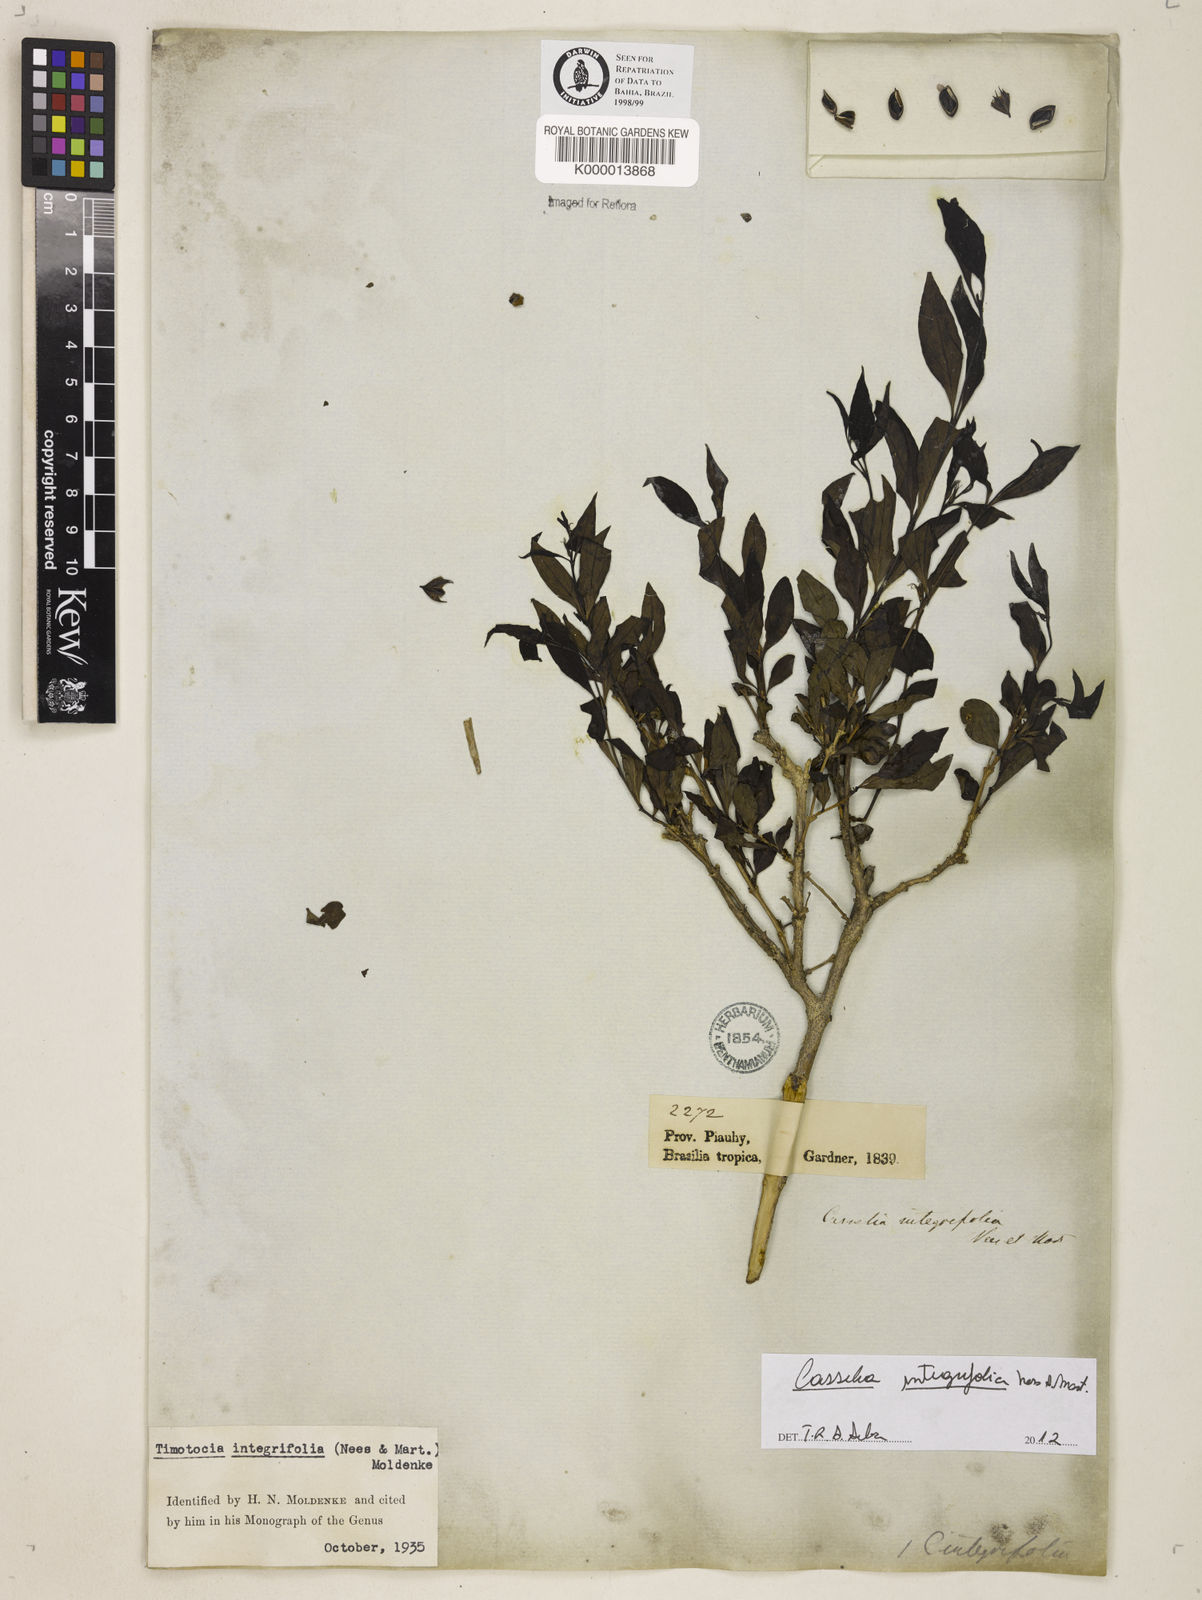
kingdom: Plantae
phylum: Tracheophyta
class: Magnoliopsida
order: Lamiales
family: Verbenaceae
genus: Casselia
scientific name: Casselia integrifolia
